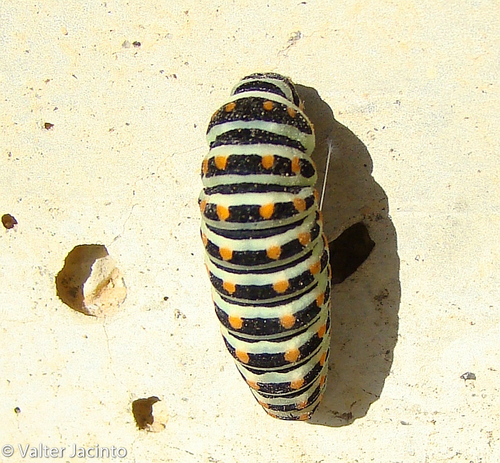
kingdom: Animalia
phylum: Arthropoda
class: Insecta
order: Lepidoptera
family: Papilionidae
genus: Papilio
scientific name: Papilio machaon
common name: Swallowtail
